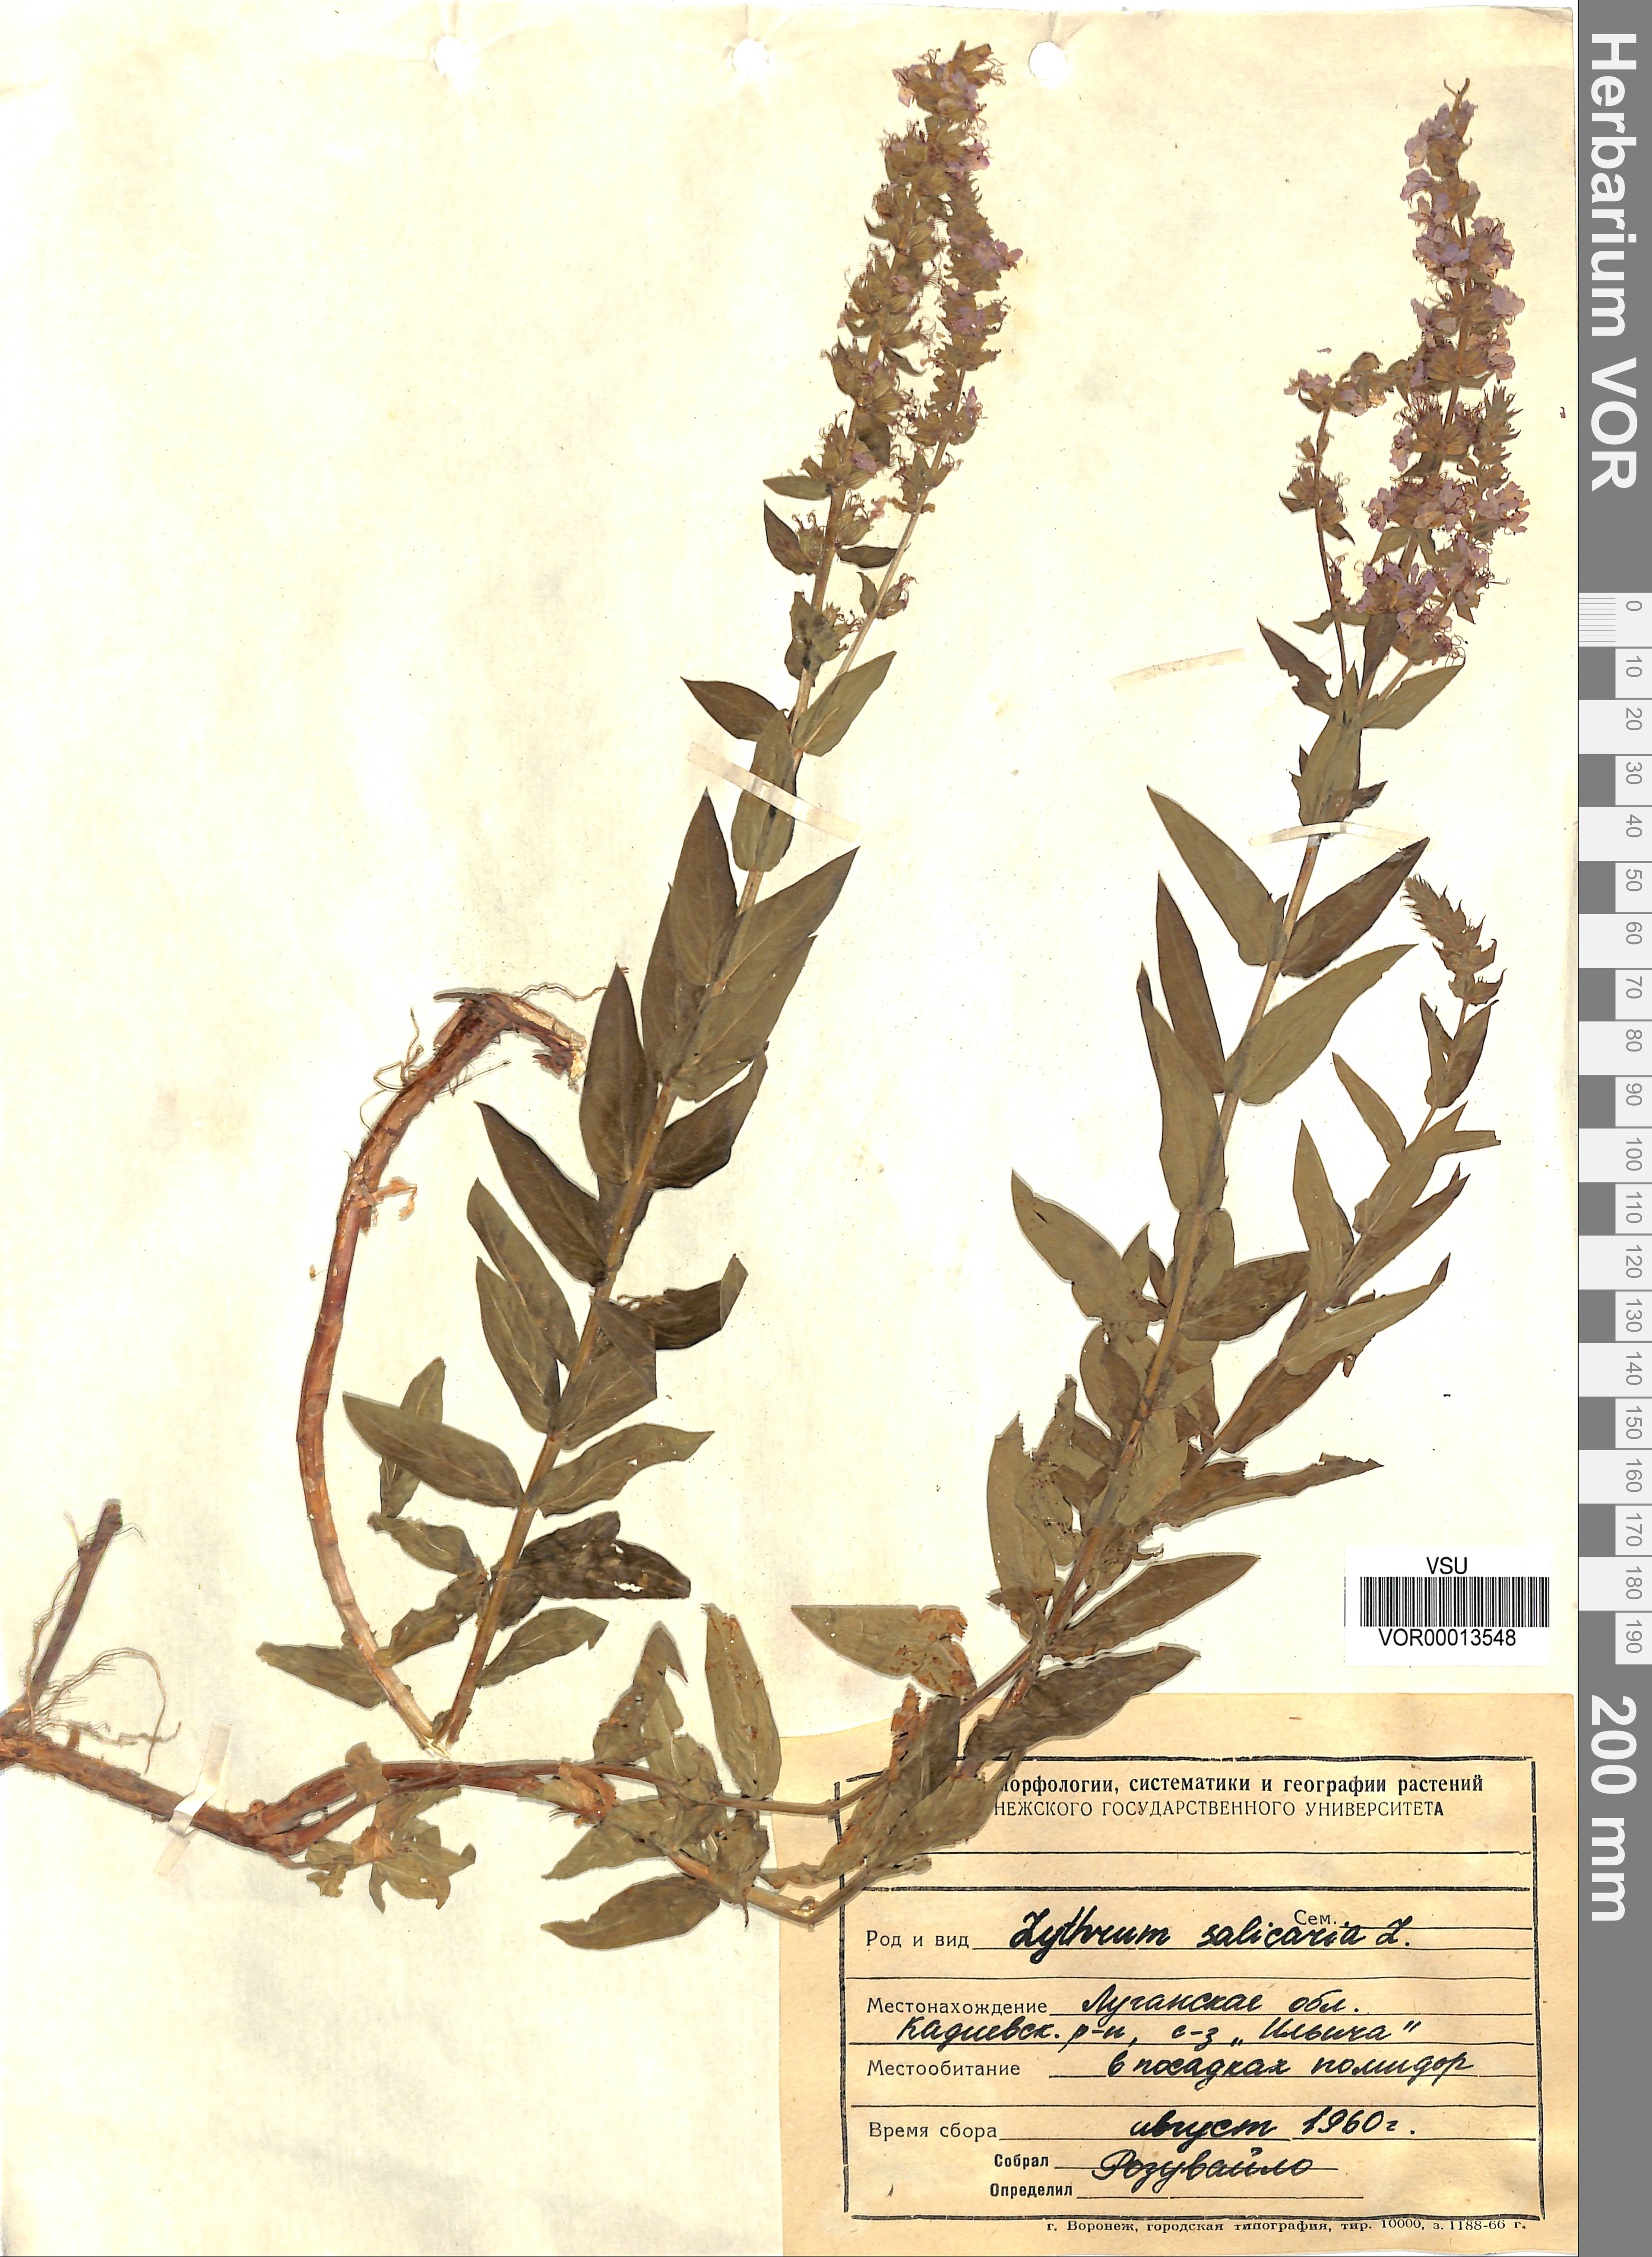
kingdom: Plantae
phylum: Tracheophyta
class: Magnoliopsida
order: Myrtales
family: Lythraceae
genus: Lythrum
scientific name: Lythrum salicaria
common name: Purple loosestrife
